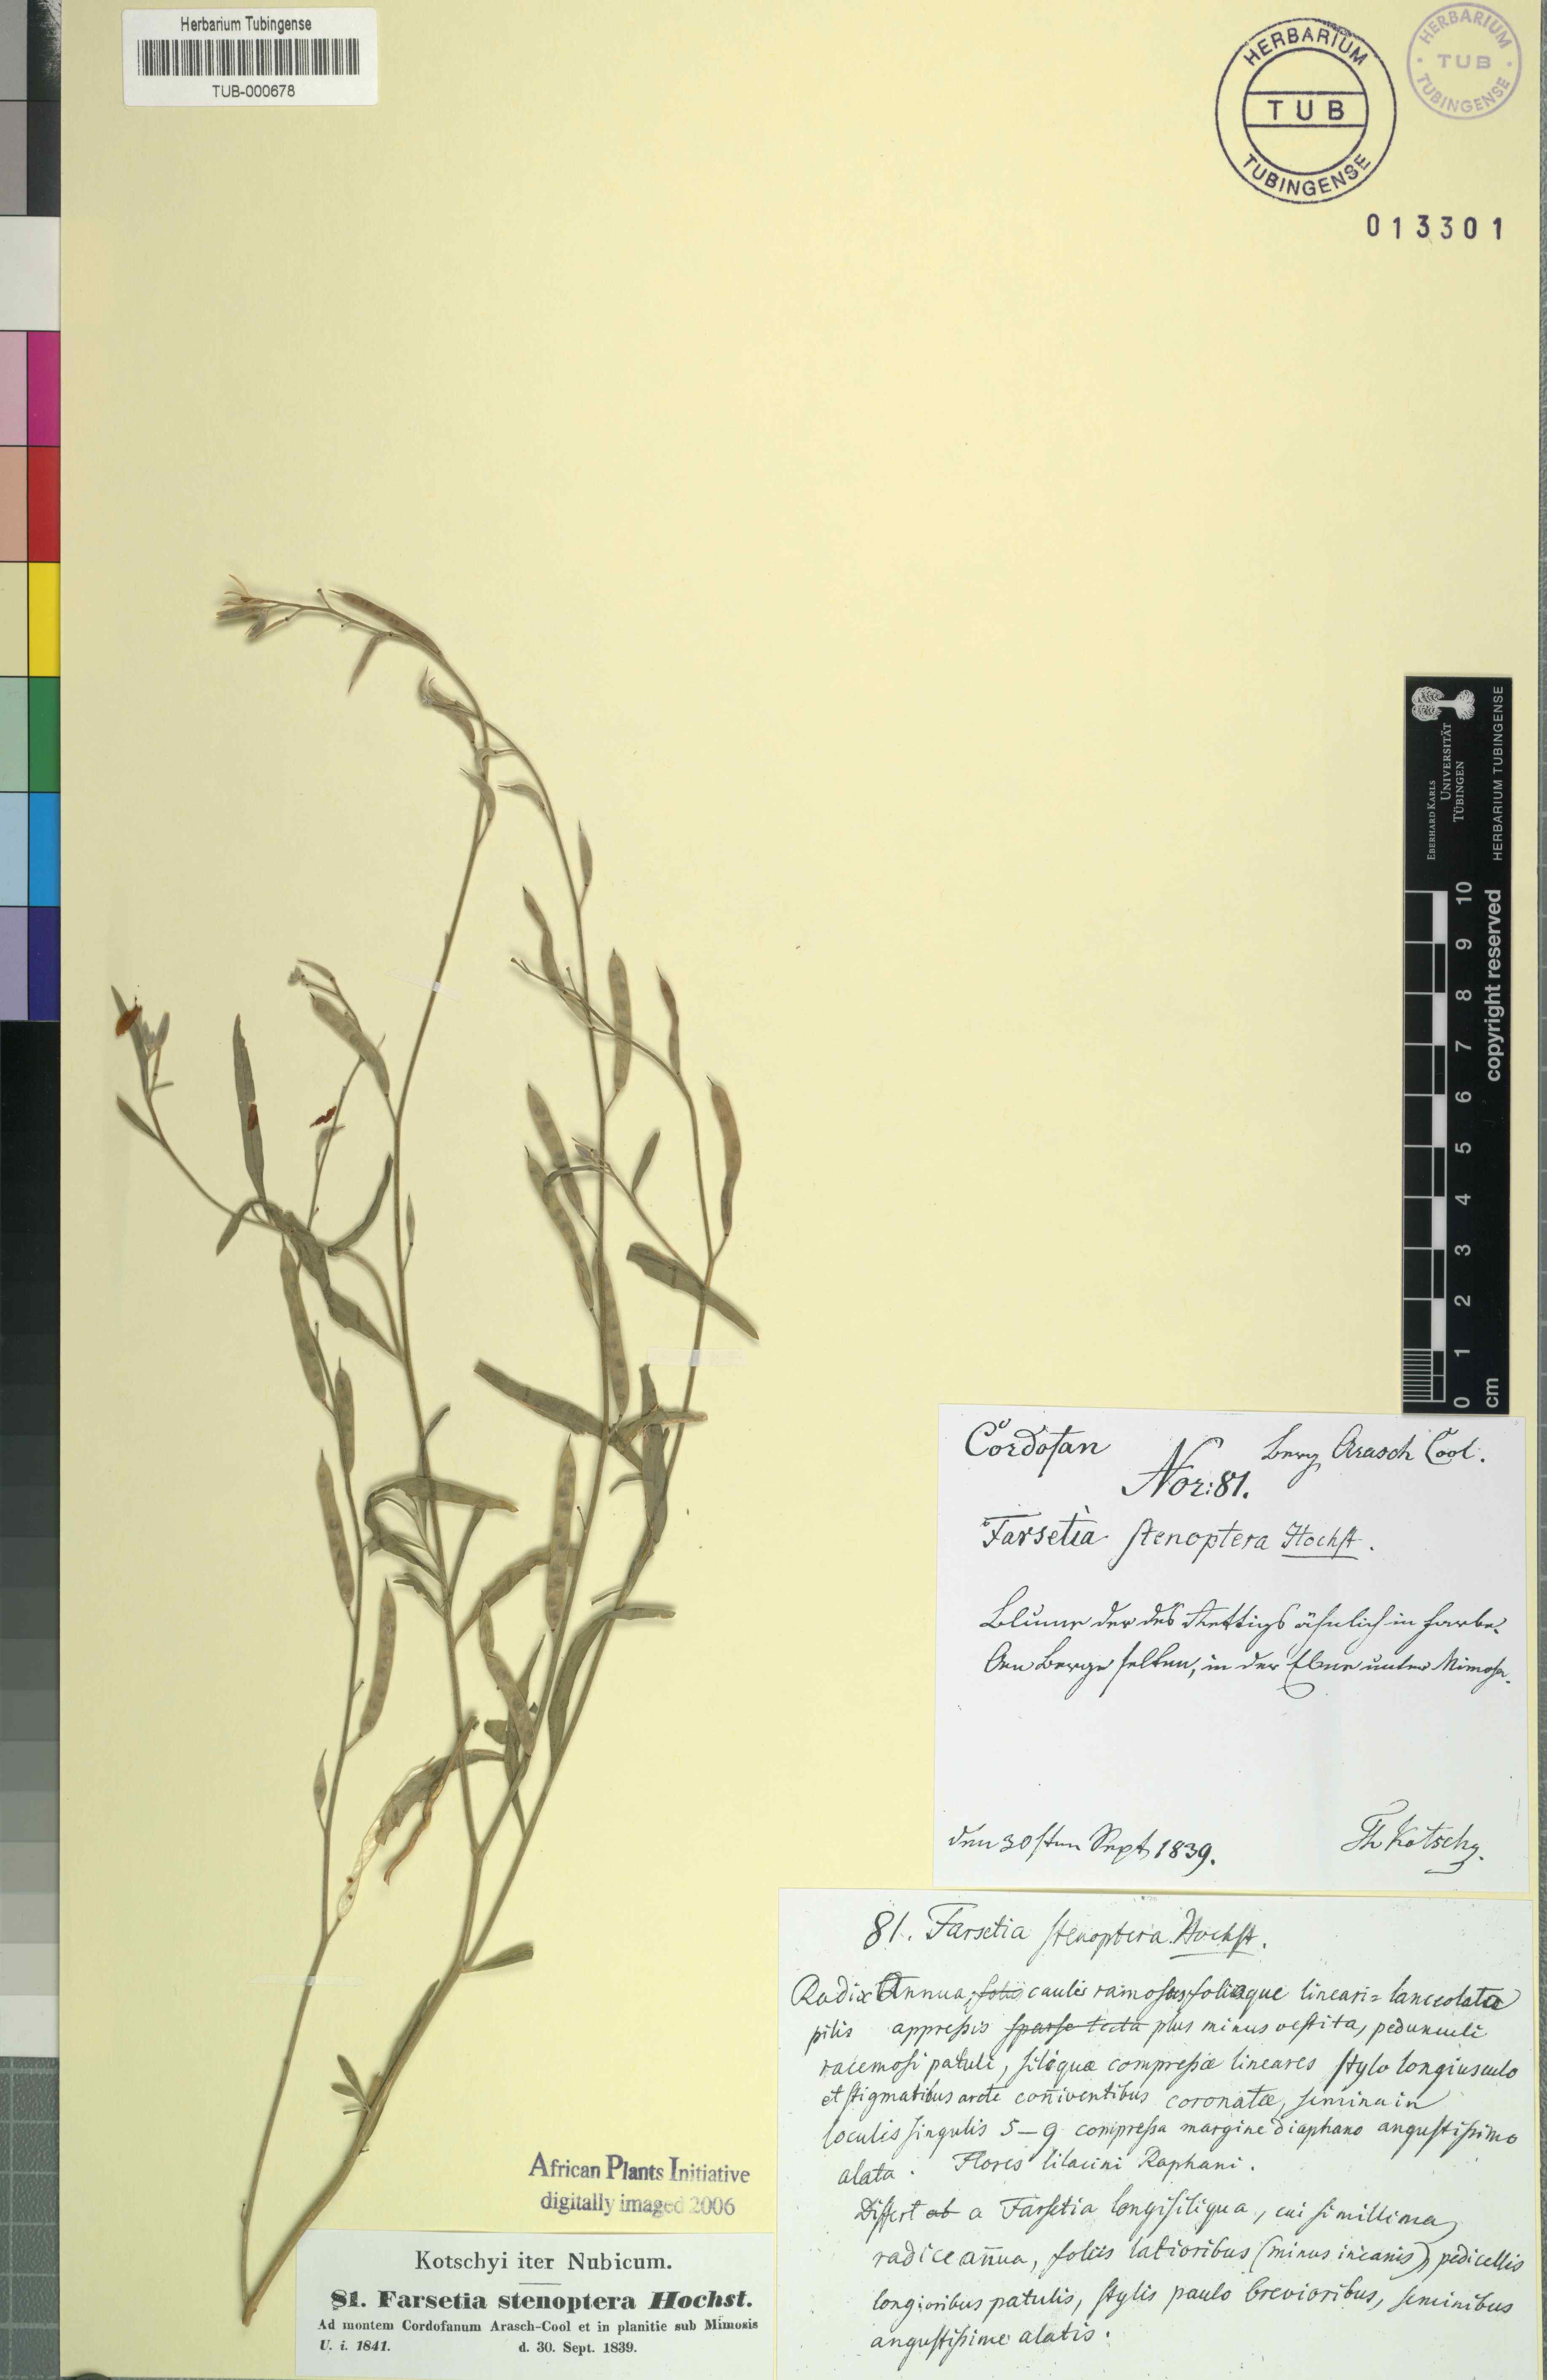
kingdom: Plantae
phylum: Tracheophyta
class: Magnoliopsida
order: Brassicales
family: Brassicaceae
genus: Farsetia
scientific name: Farsetia stenoptera
